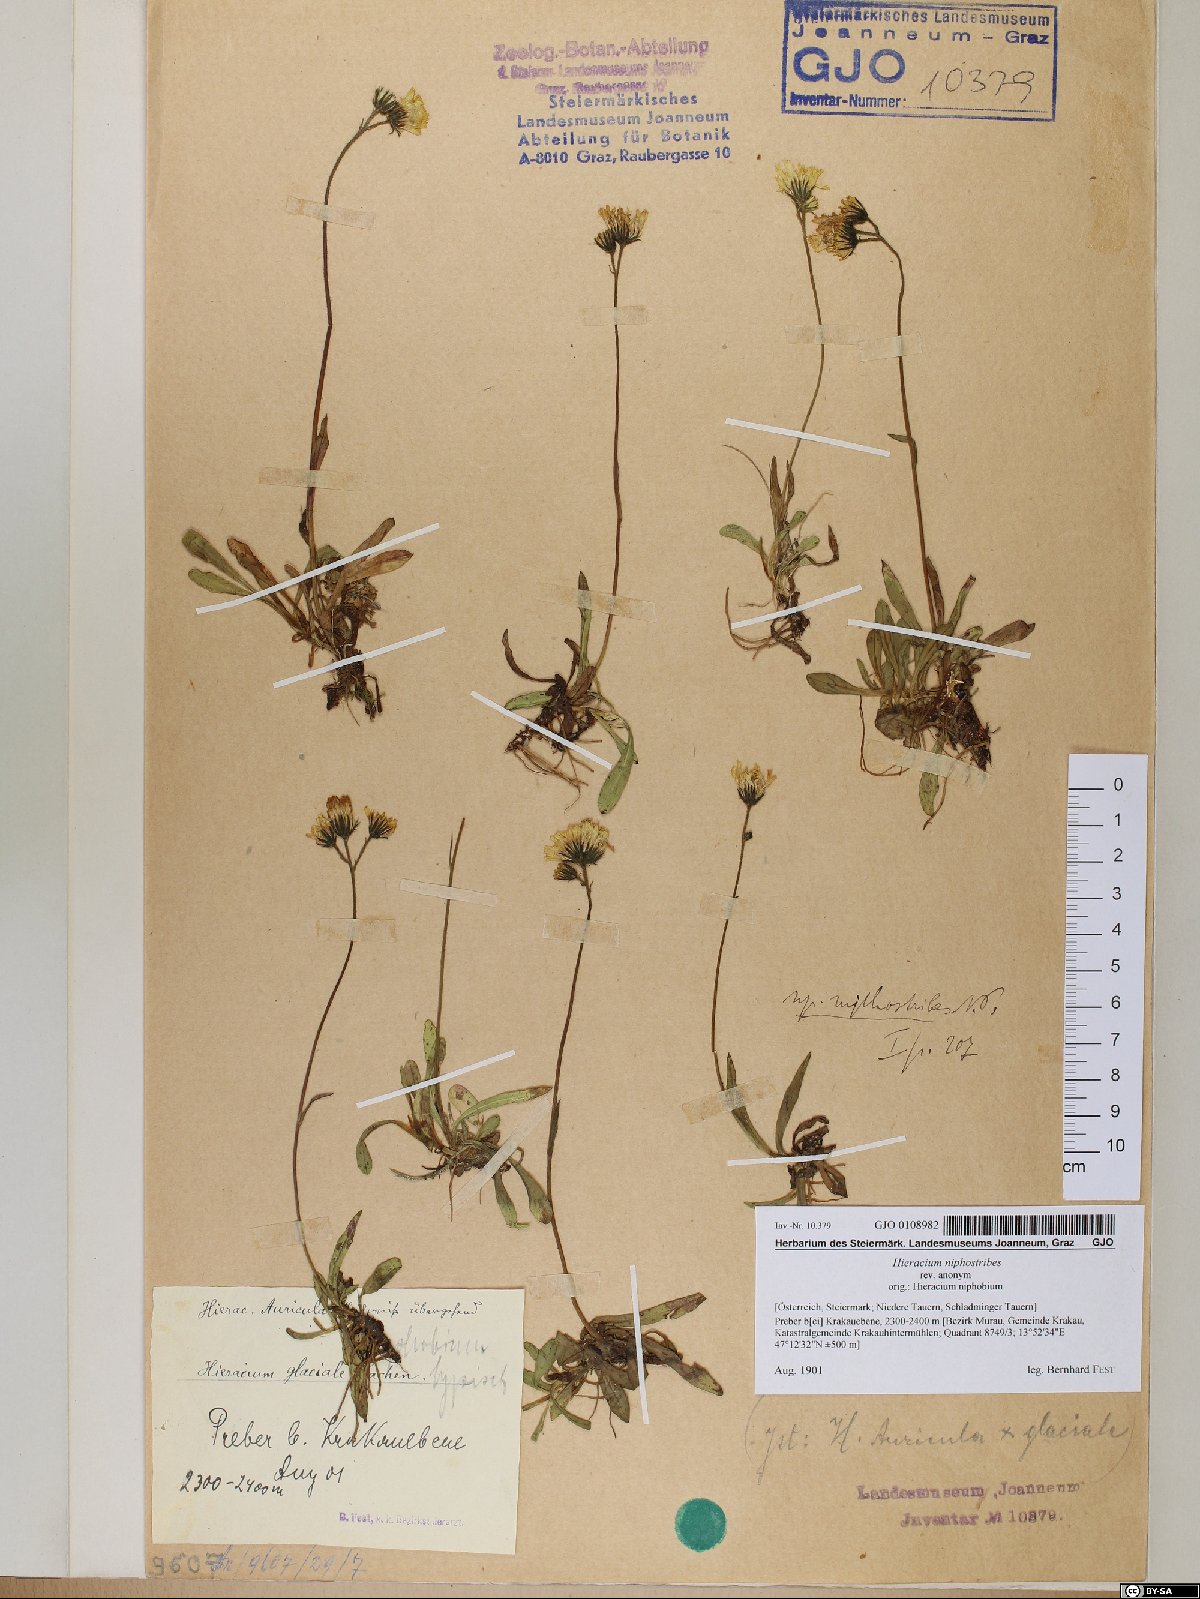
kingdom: Plantae
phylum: Tracheophyta
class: Magnoliopsida
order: Asterales
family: Asteraceae
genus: Pilosella
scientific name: Pilosella corymbuloides
